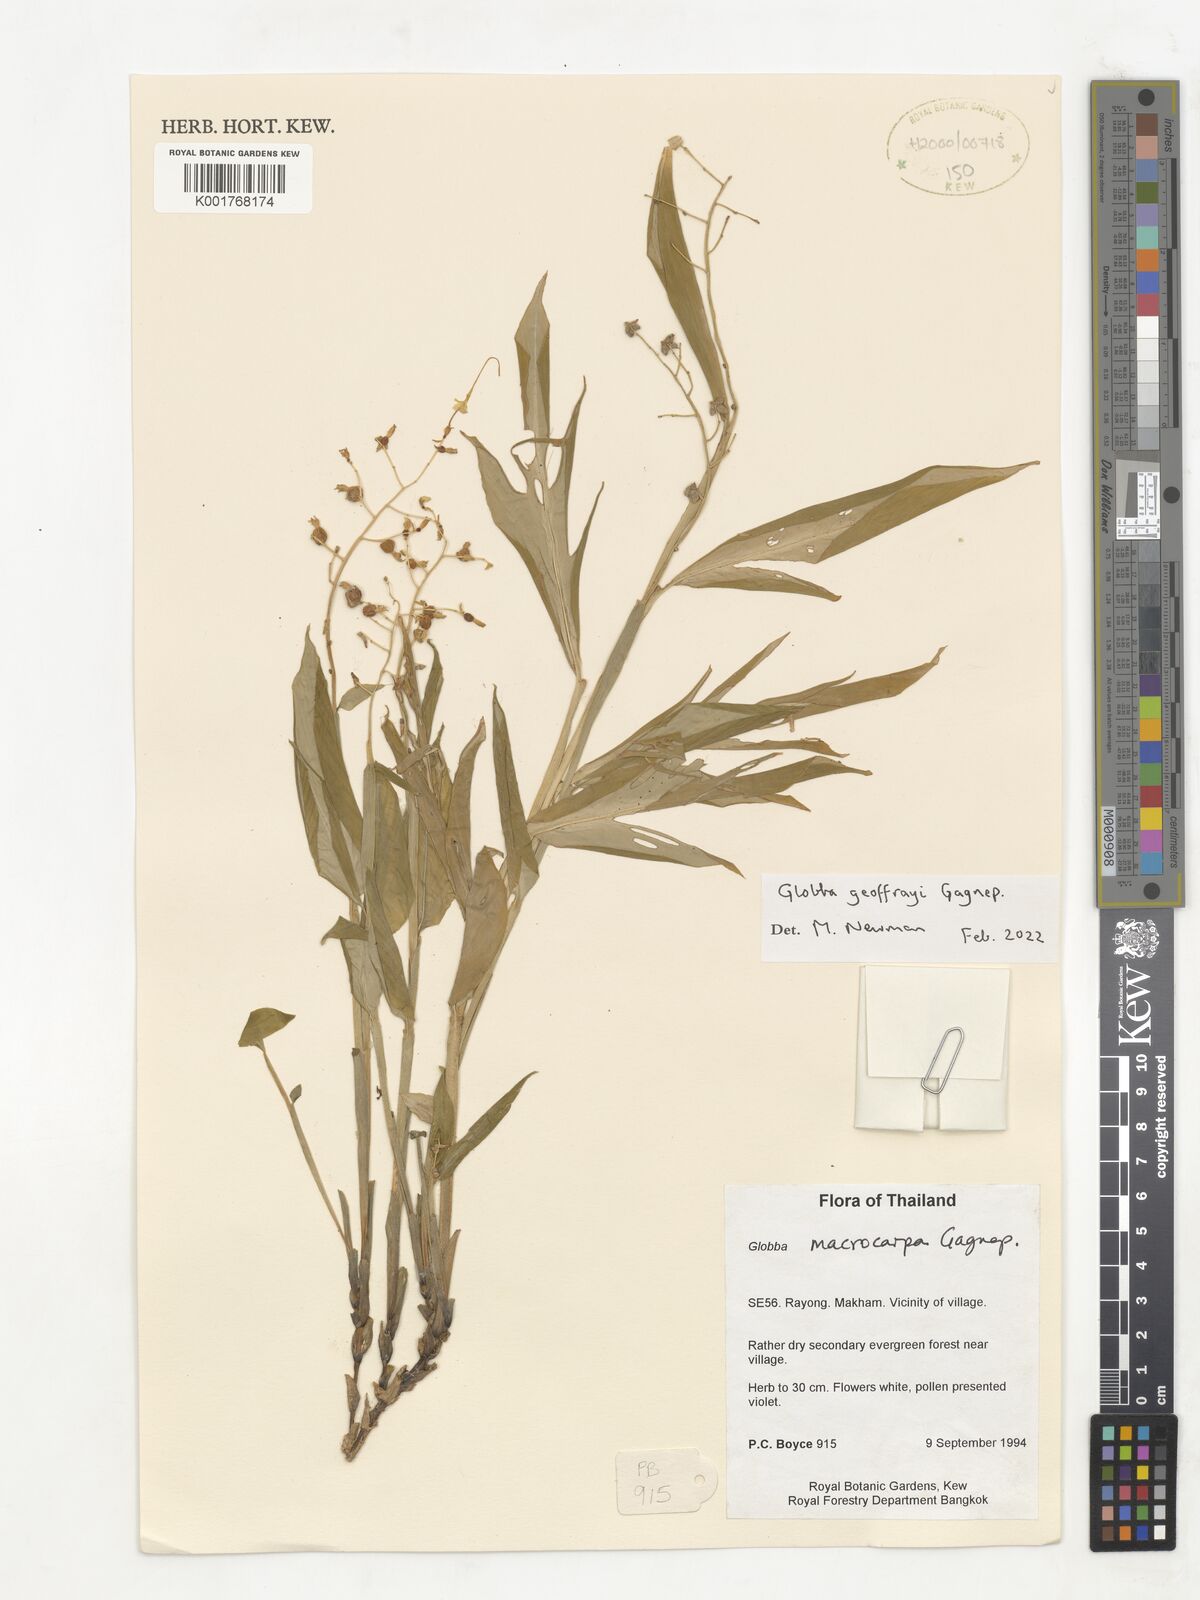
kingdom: Plantae
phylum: Tracheophyta
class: Liliopsida
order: Zingiberales
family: Zingiberaceae
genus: Globba
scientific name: Globba geoffrayi
